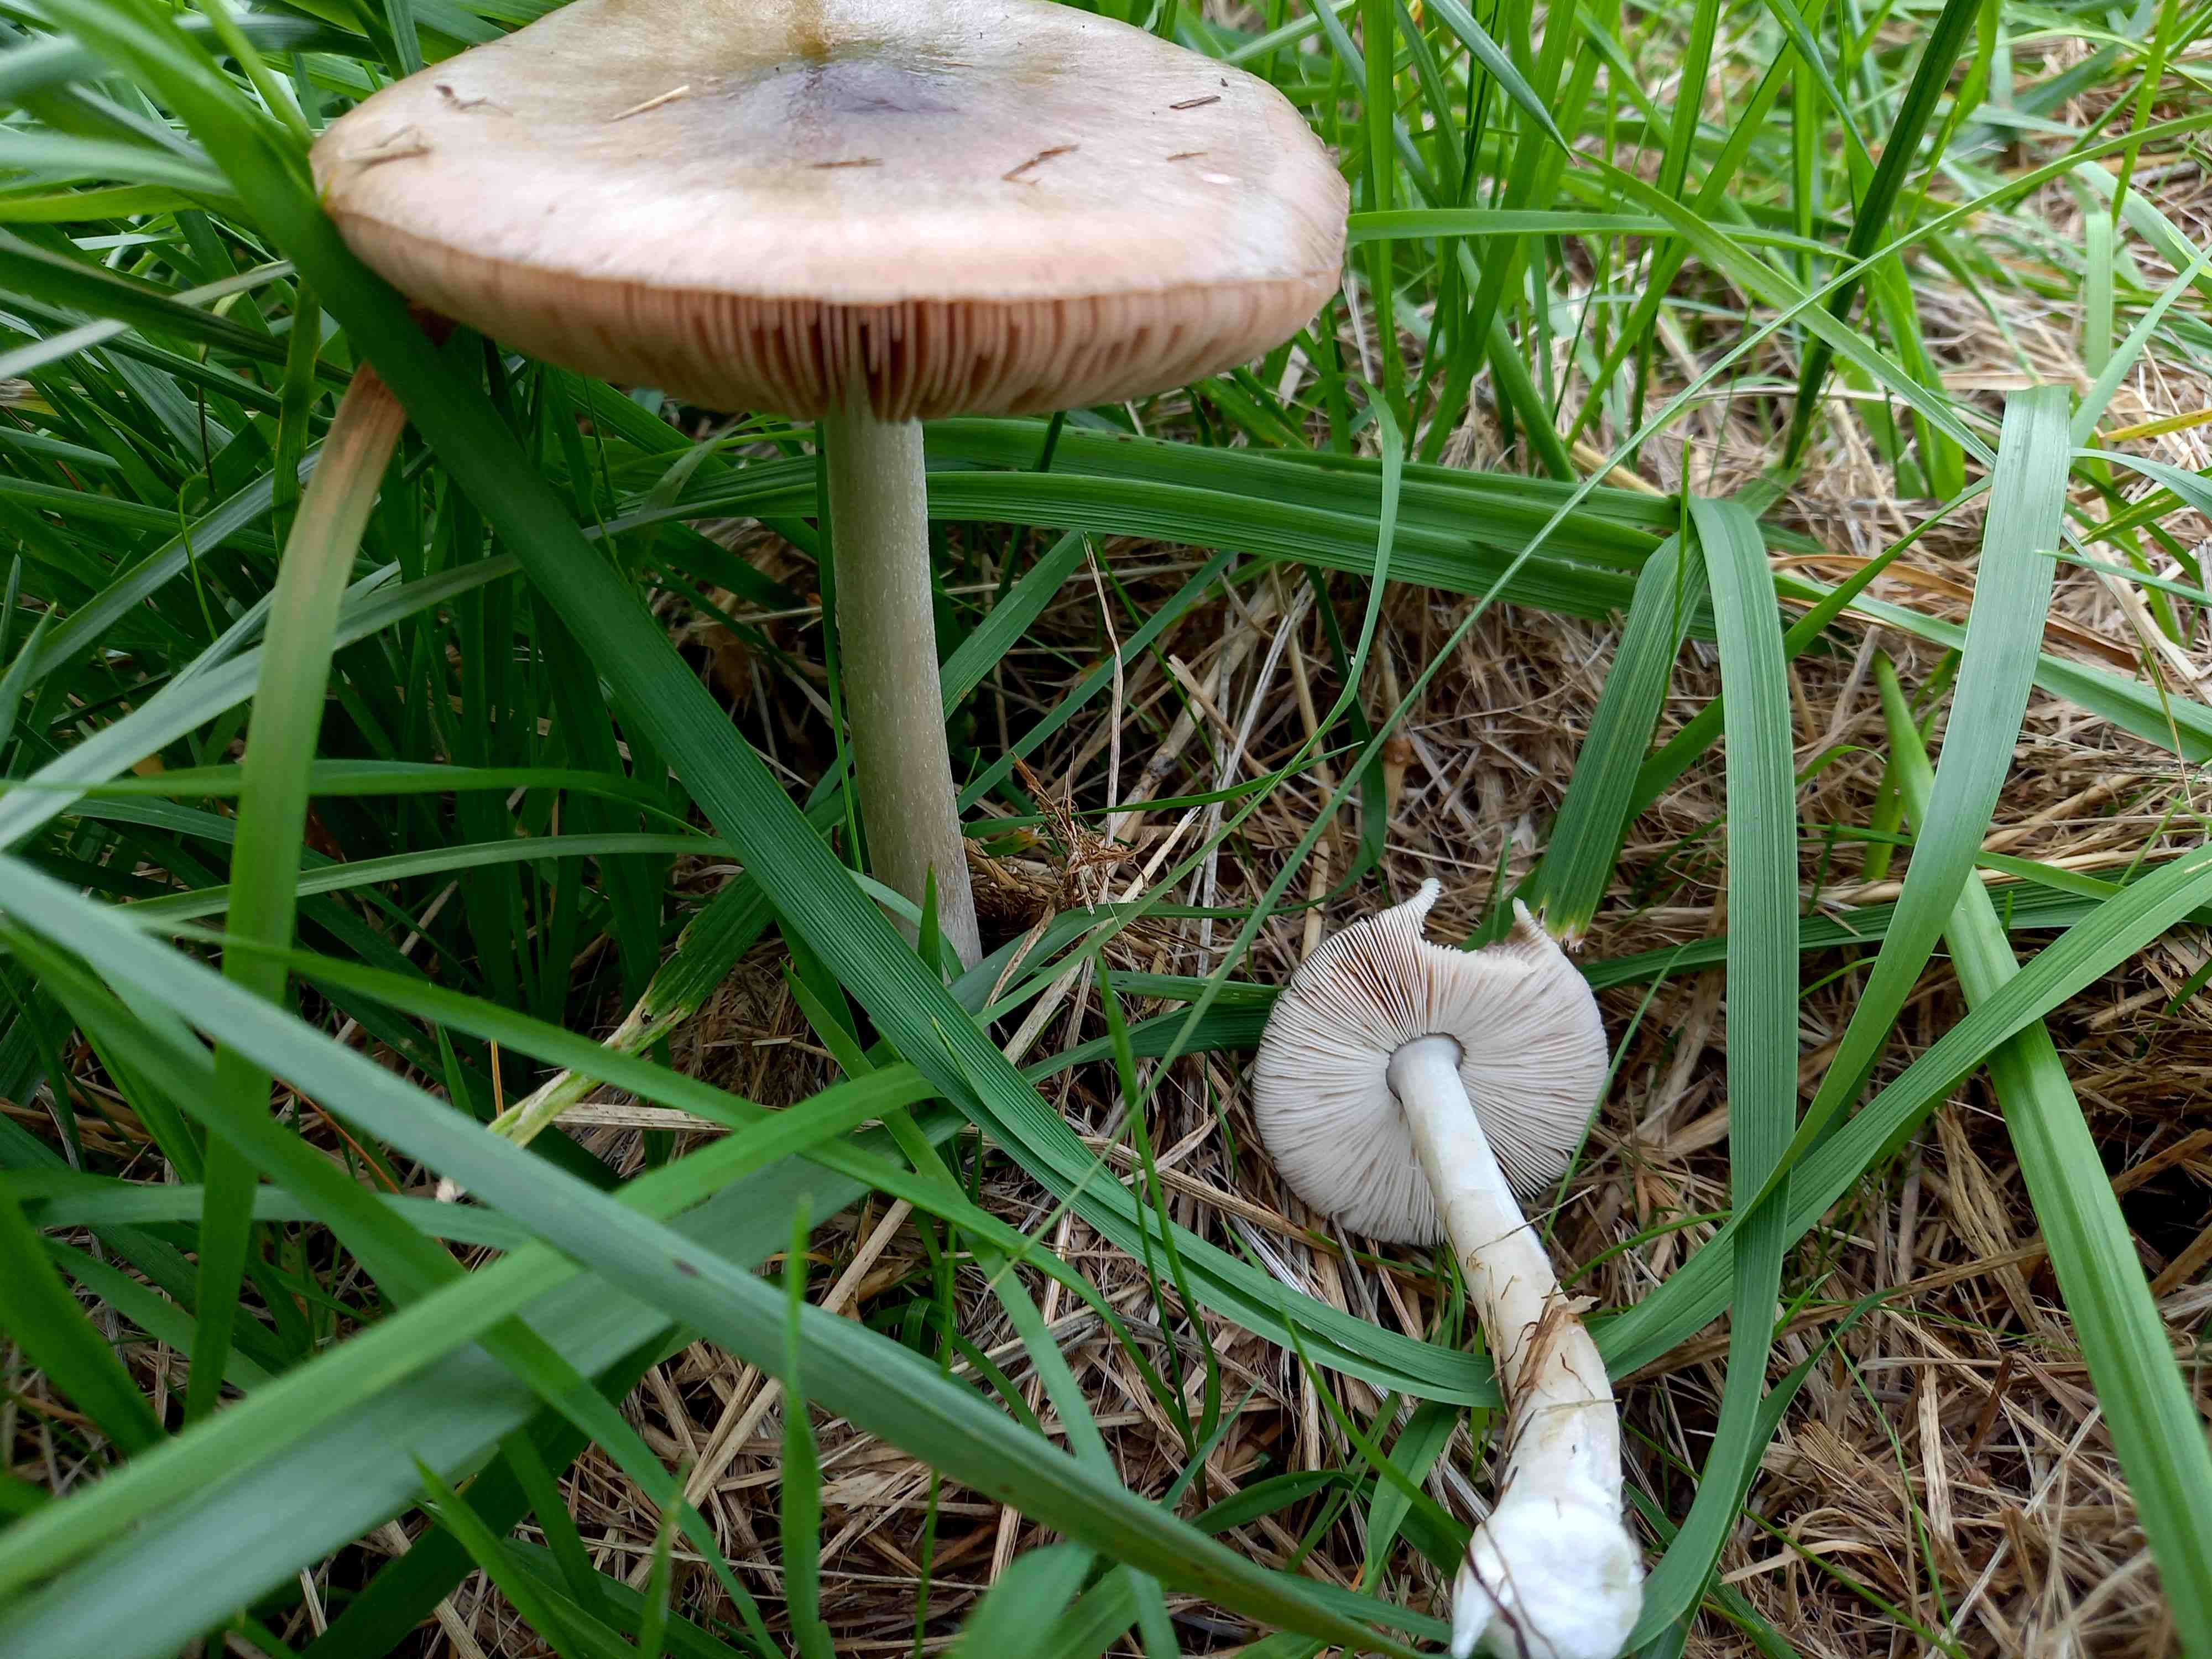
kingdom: Fungi
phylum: Basidiomycota
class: Agaricomycetes
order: Agaricales
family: Pluteaceae
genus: Volvopluteus
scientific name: Volvopluteus gloiocephalus
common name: høj posesvamp
